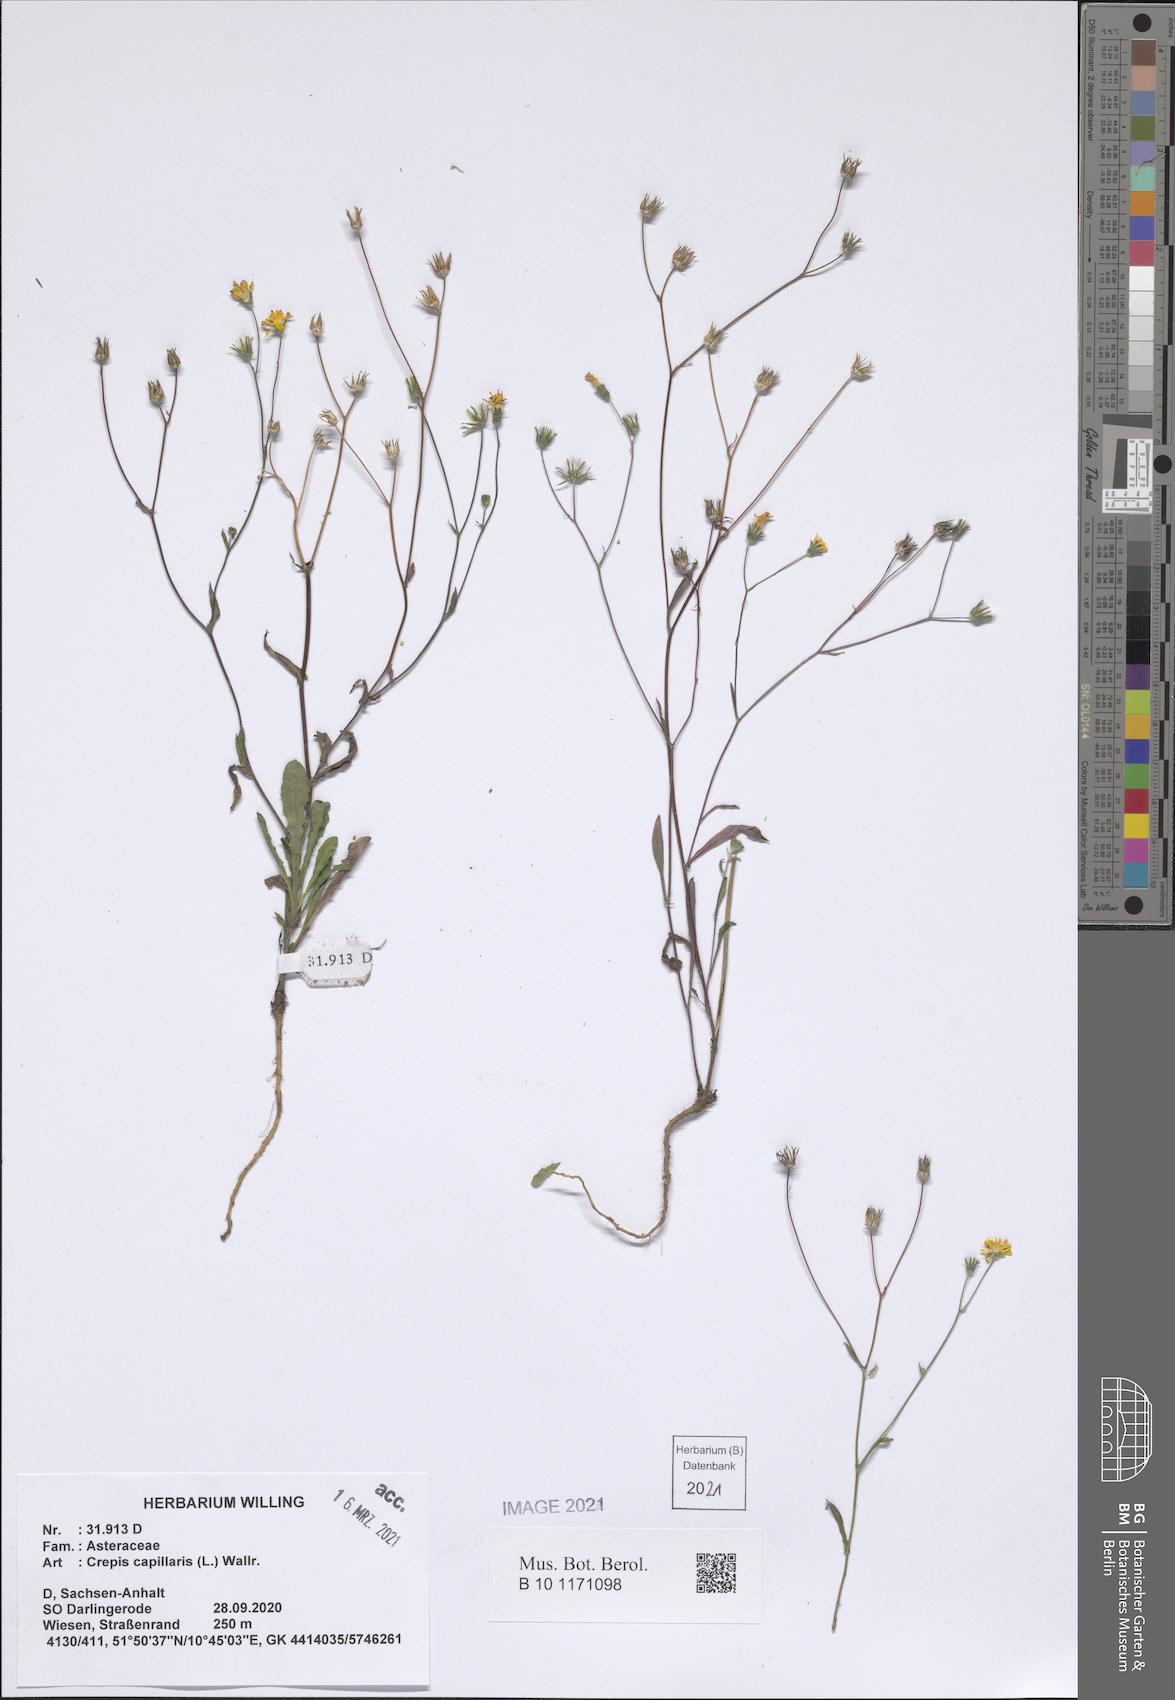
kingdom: Plantae
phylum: Tracheophyta
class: Magnoliopsida
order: Asterales
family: Asteraceae
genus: Crepis
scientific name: Crepis capillaris
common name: Smooth hawksbeard
